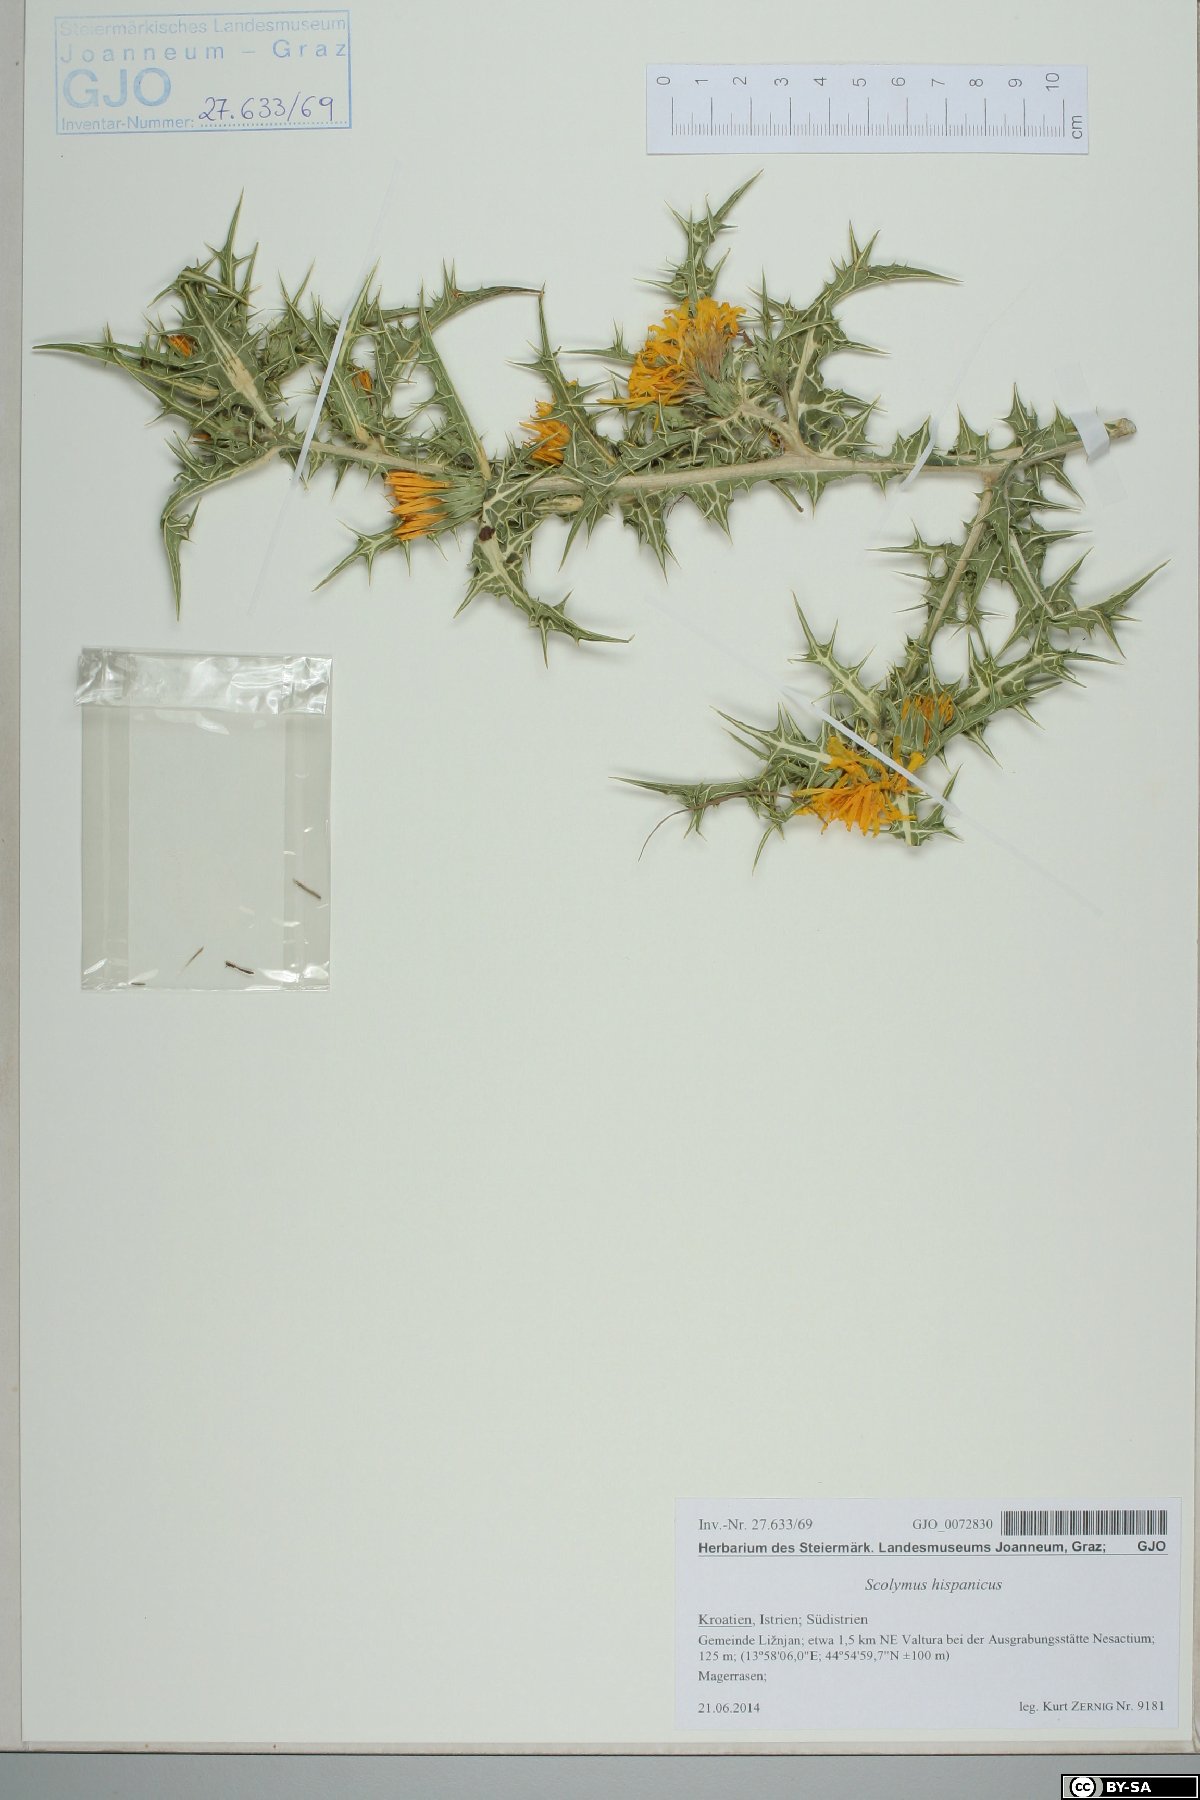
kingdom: Plantae
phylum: Tracheophyta
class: Magnoliopsida
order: Asterales
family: Asteraceae
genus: Scolymus
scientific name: Scolymus hispanicus
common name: Golden thistle
